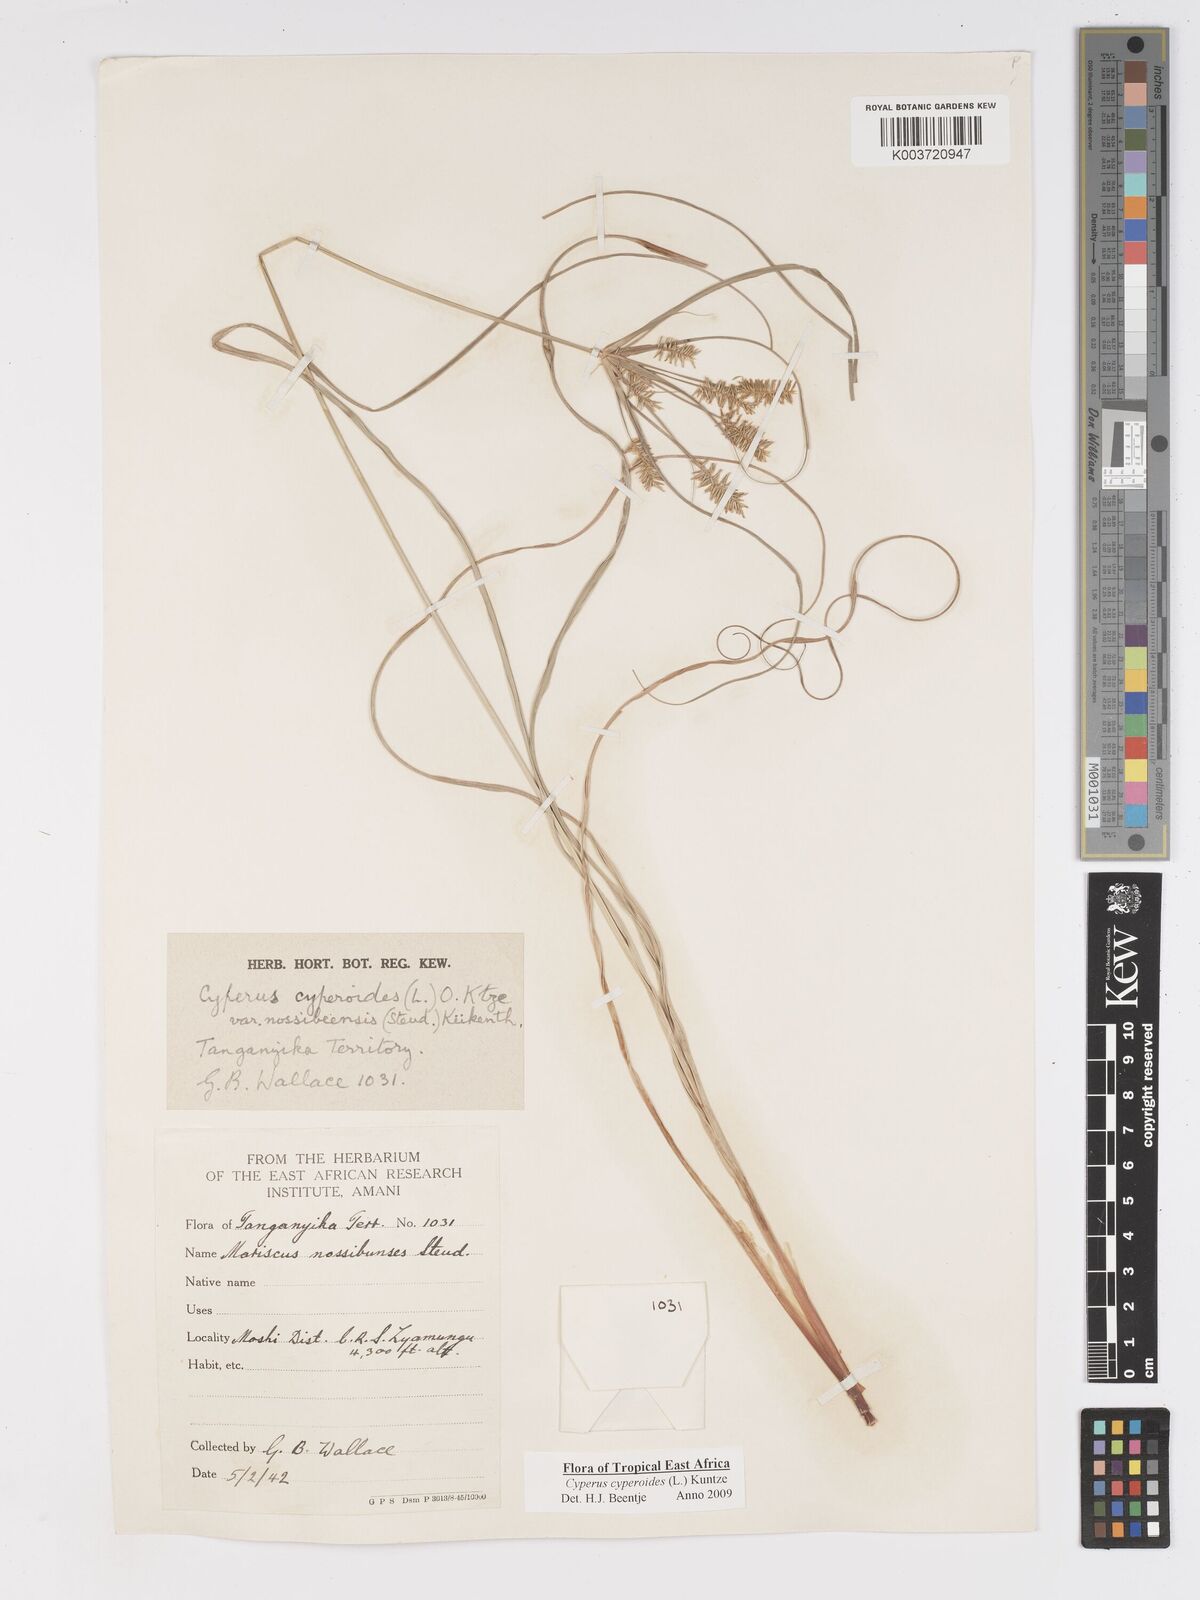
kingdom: Plantae
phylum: Tracheophyta
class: Liliopsida
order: Poales
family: Cyperaceae
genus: Cyperus
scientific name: Cyperus cyperoides
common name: Pacific island flat sedge
